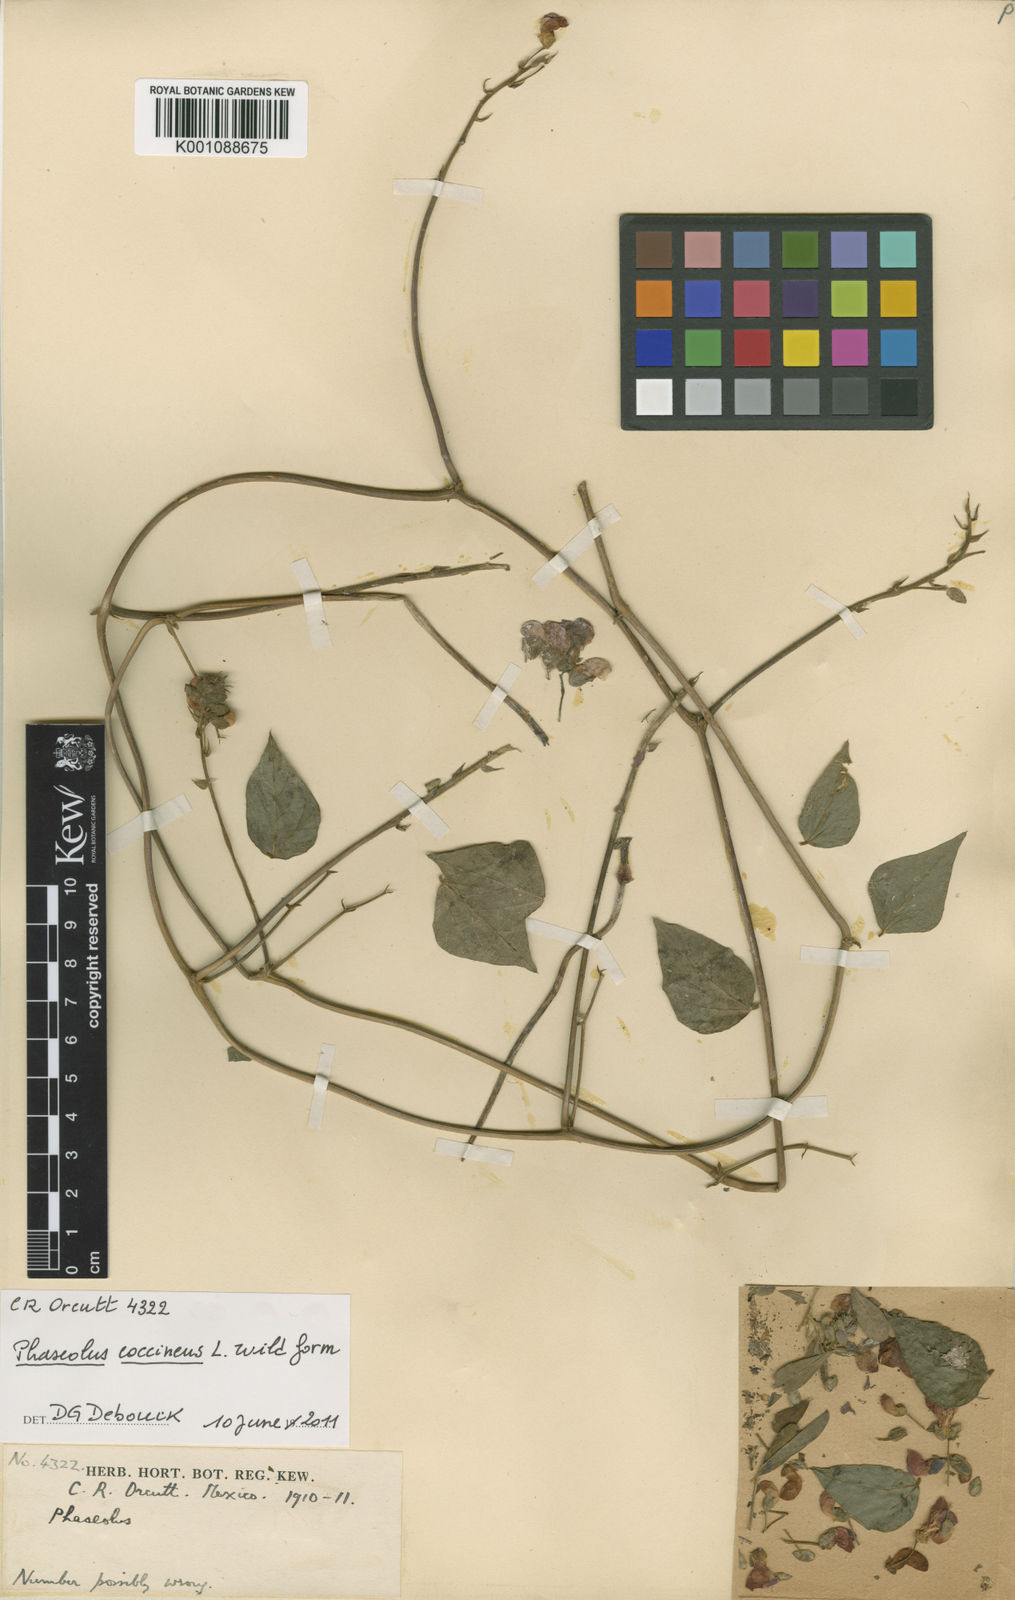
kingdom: Plantae
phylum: Tracheophyta
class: Magnoliopsida
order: Fabales
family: Fabaceae
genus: Phaseolus
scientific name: Phaseolus coccineus
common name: Runner bean
